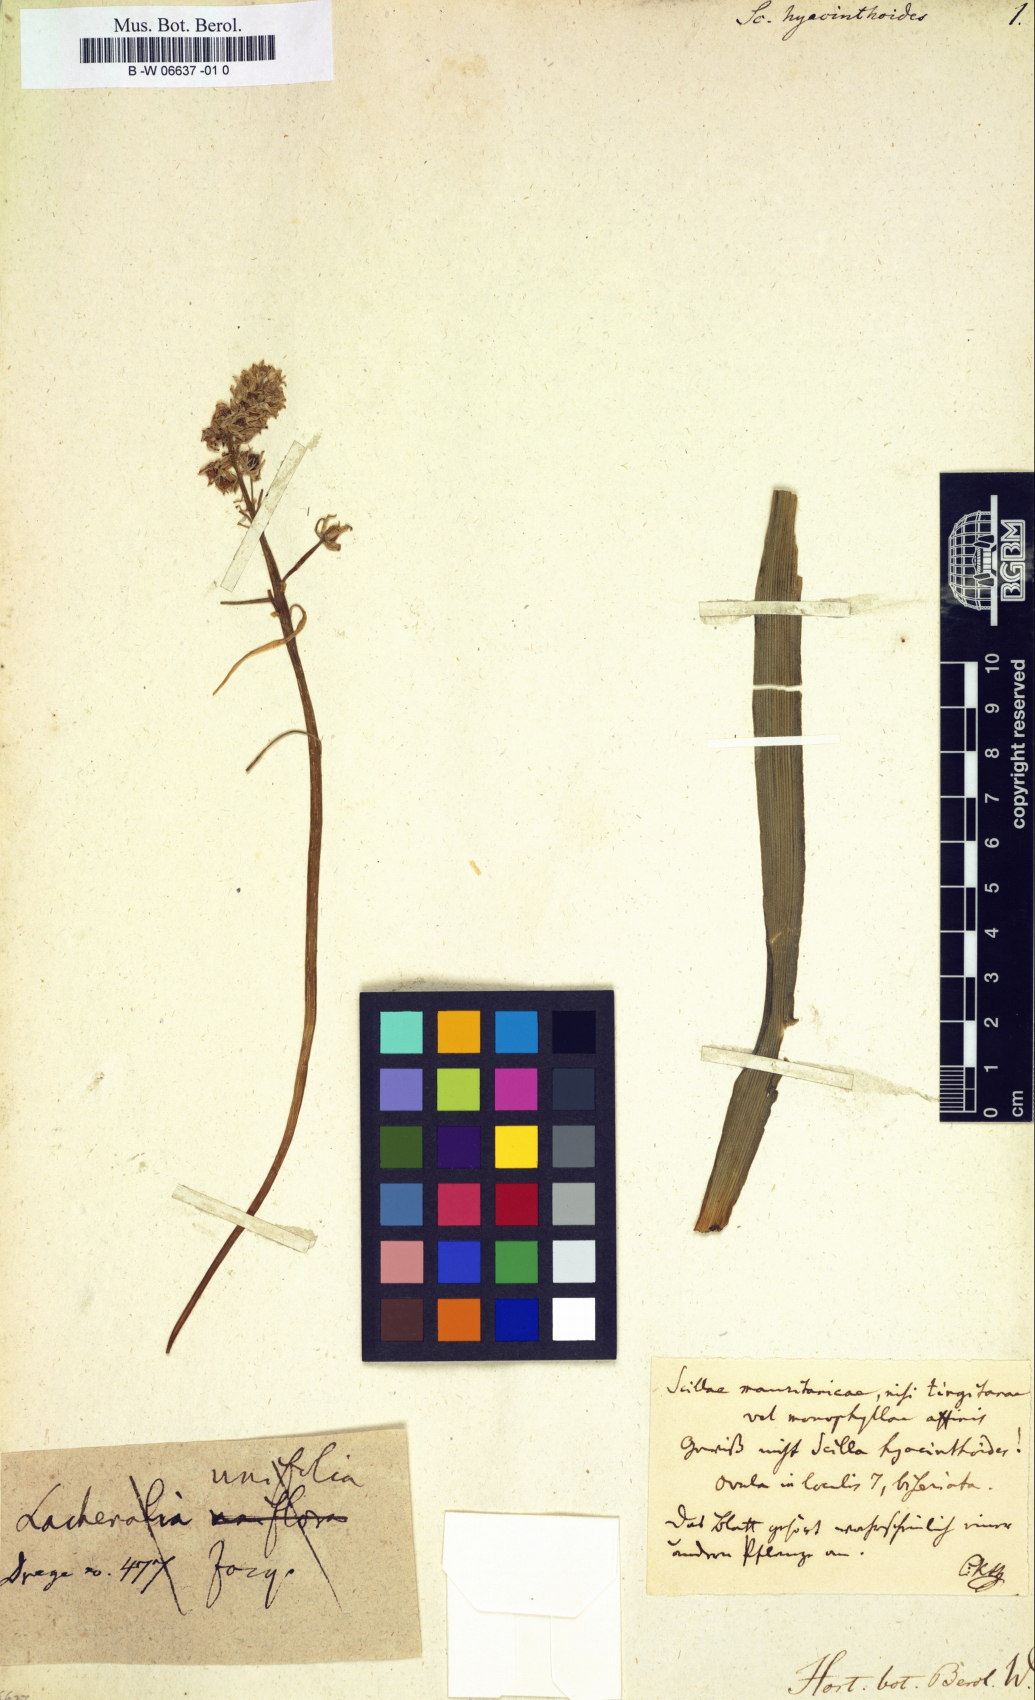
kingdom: Plantae
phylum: Tracheophyta
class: Liliopsida
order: Asparagales
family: Asparagaceae
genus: Scilla
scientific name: Scilla hyacinthoides
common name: Scilla
